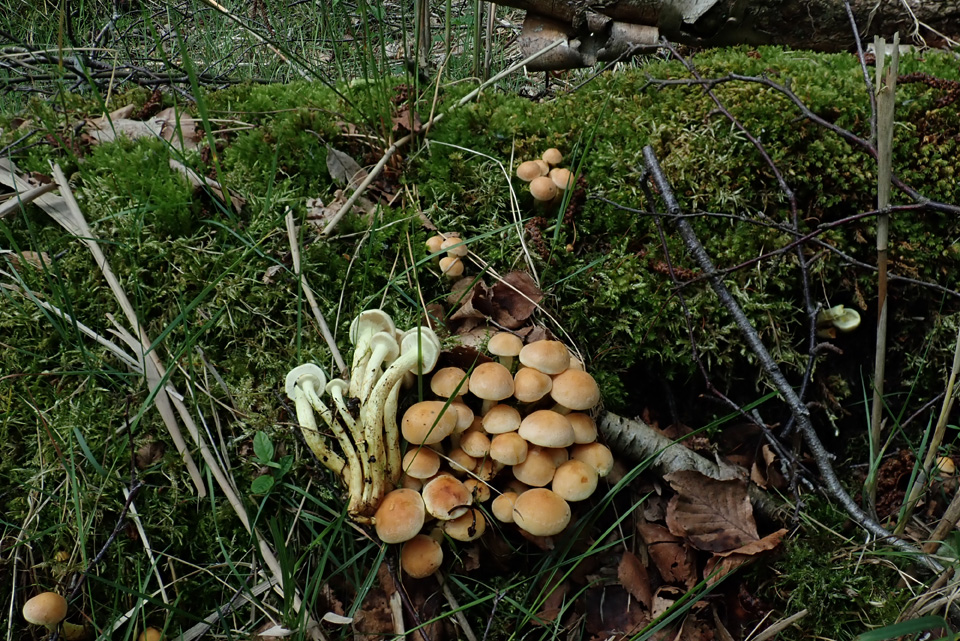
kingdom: Fungi
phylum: Basidiomycota
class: Agaricomycetes
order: Agaricales
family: Strophariaceae
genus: Hypholoma
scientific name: Hypholoma fasciculare
